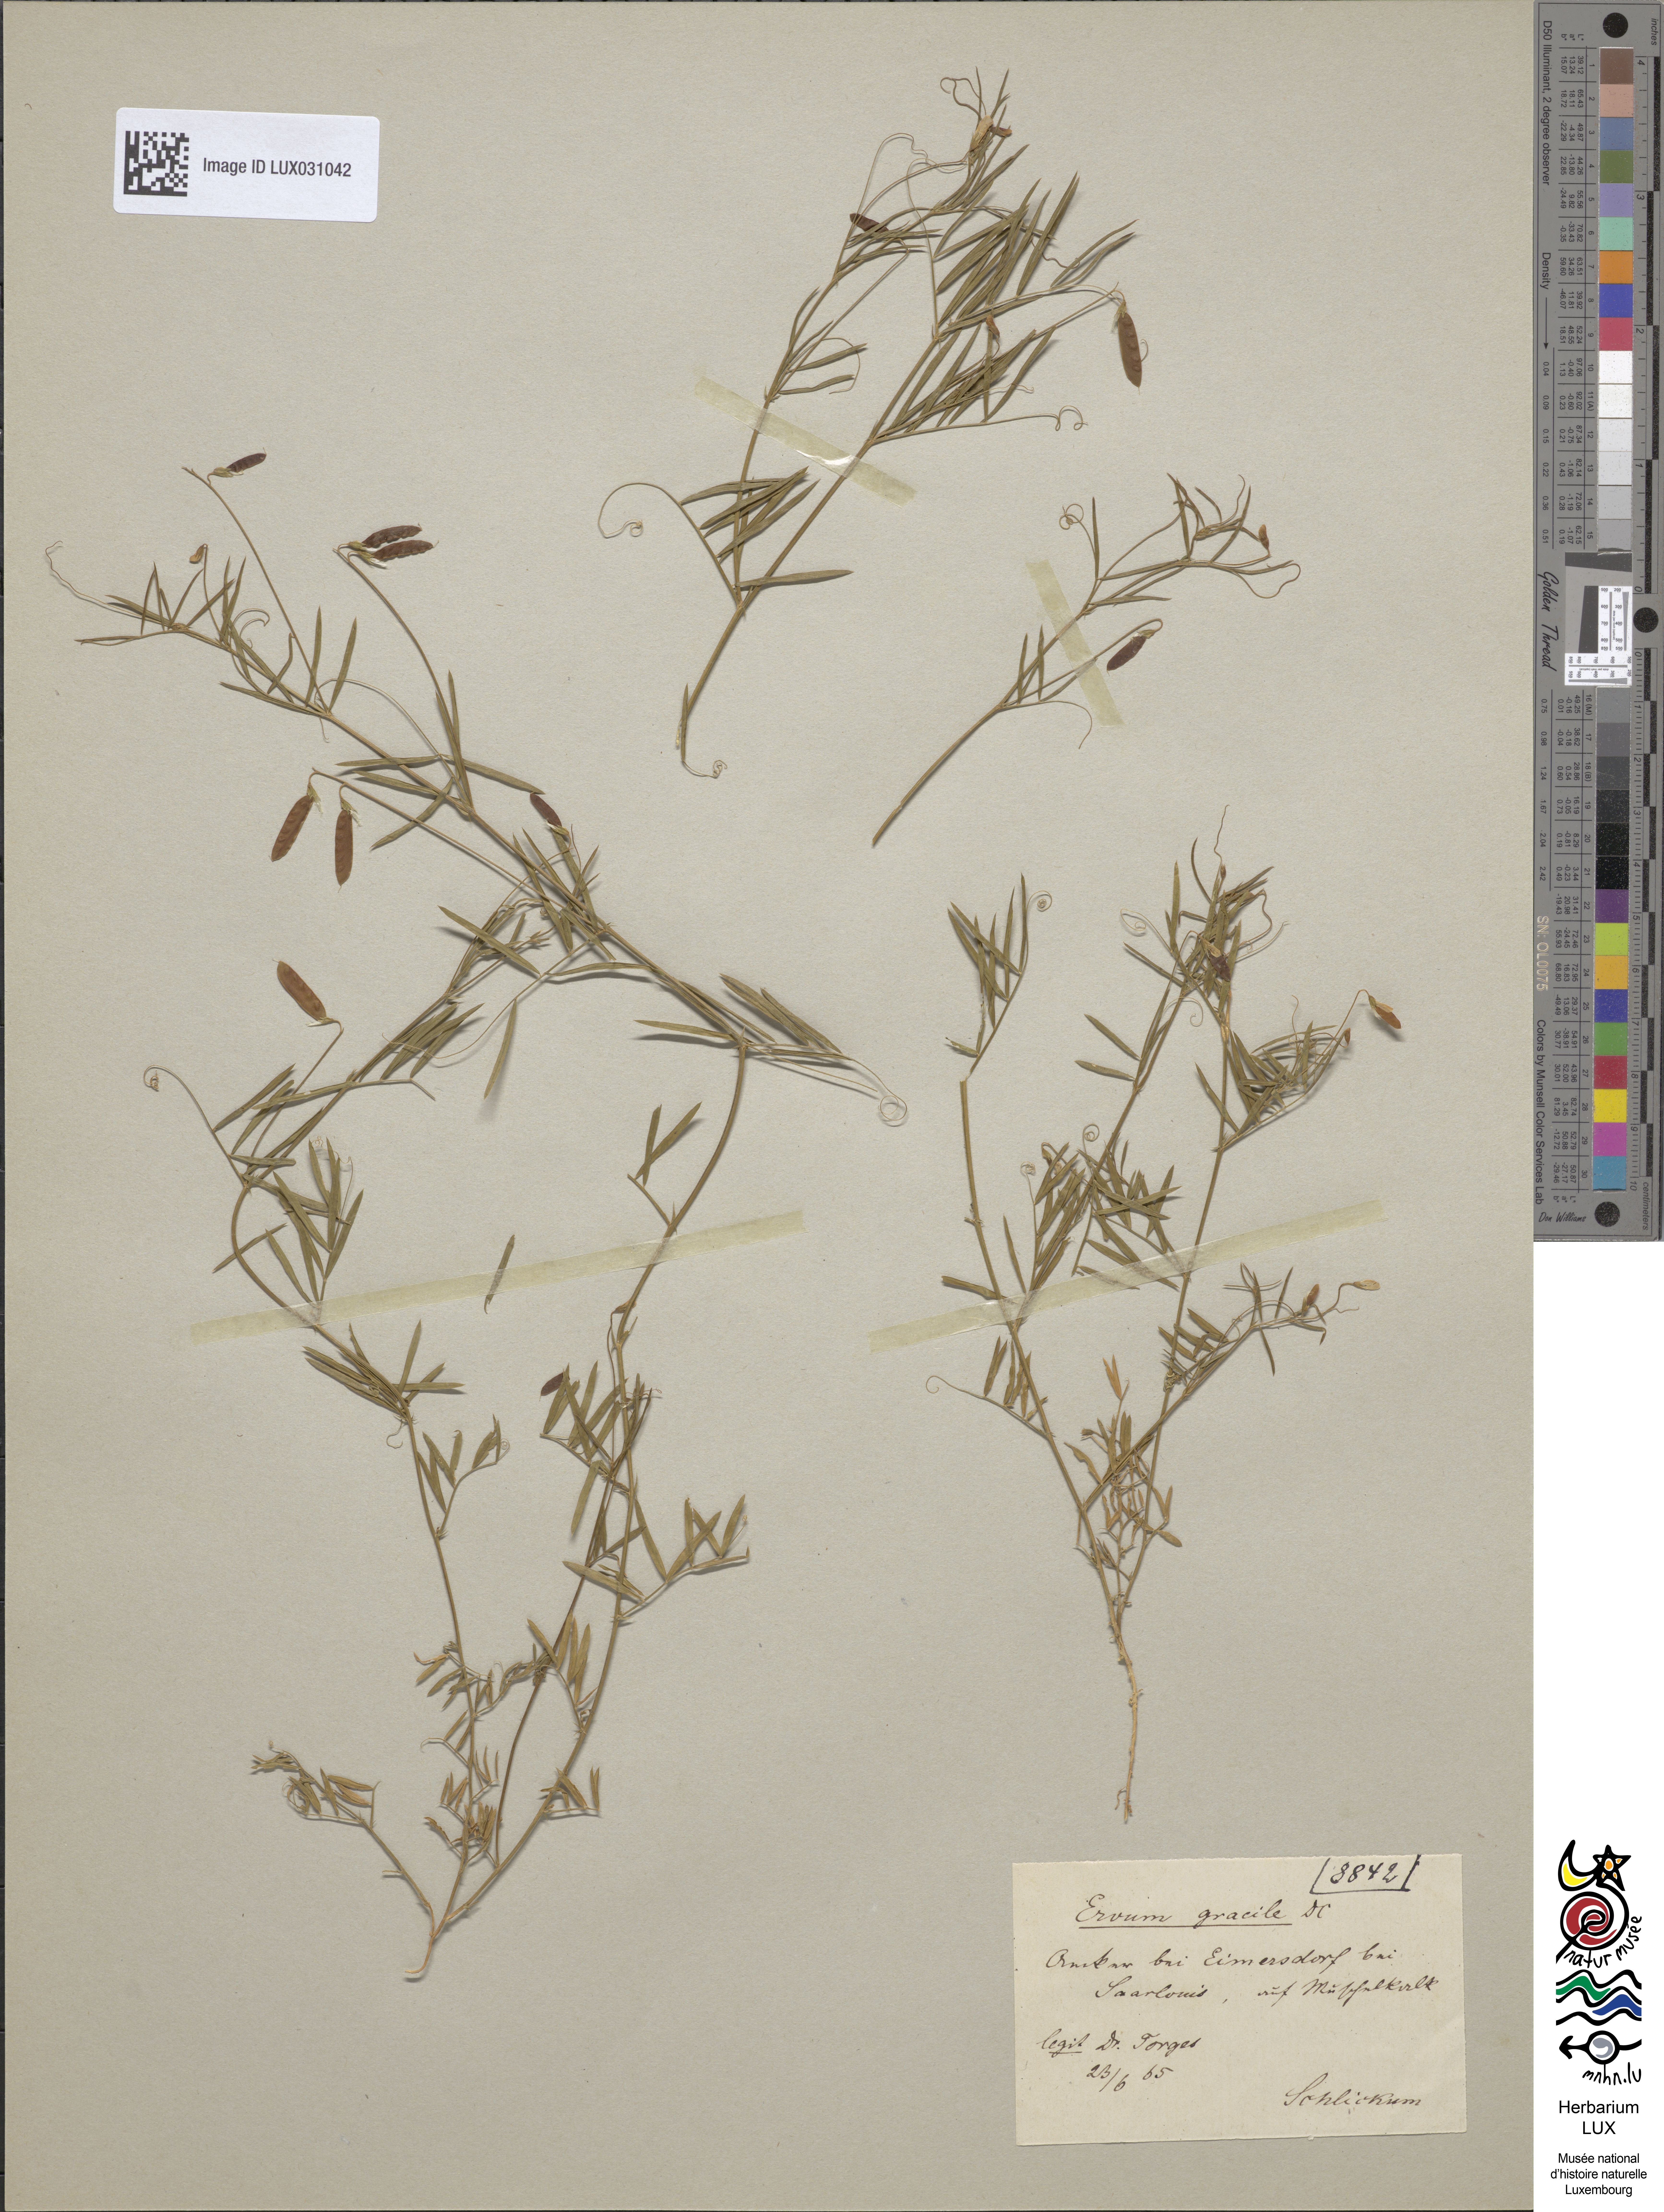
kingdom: Plantae
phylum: Tracheophyta
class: Magnoliopsida
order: Fabales
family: Fabaceae
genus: Vicia
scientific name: Vicia parviflora
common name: Slender tare
